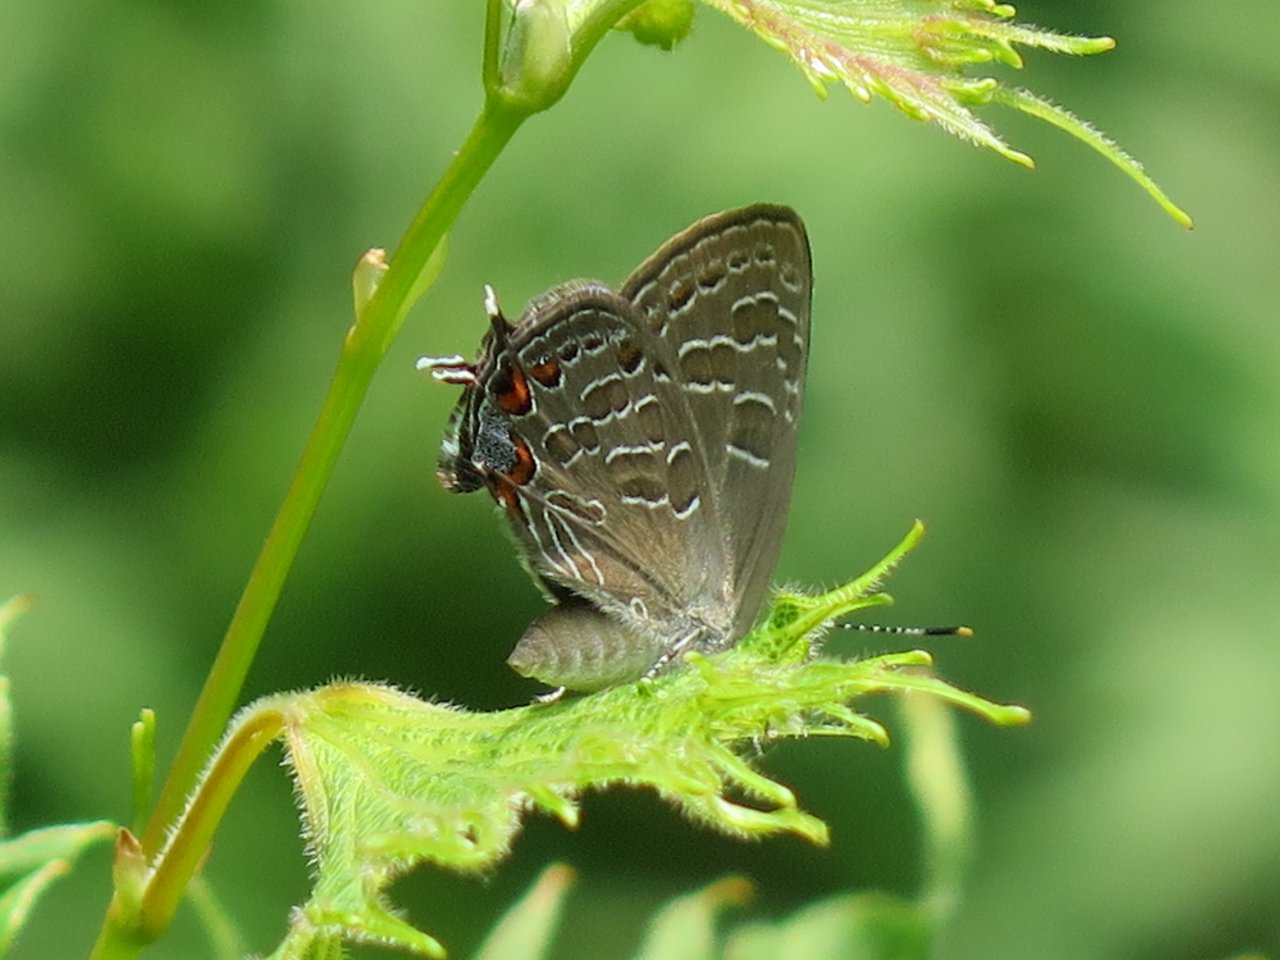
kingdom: Animalia
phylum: Arthropoda
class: Insecta
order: Lepidoptera
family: Lycaenidae
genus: Satyrium
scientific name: Satyrium liparops
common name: Striped Hairstreak
